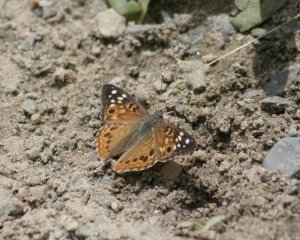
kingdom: Animalia
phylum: Arthropoda
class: Insecta
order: Lepidoptera
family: Nymphalidae
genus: Asterocampa
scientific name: Asterocampa celtis
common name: Hackberry Emperor
